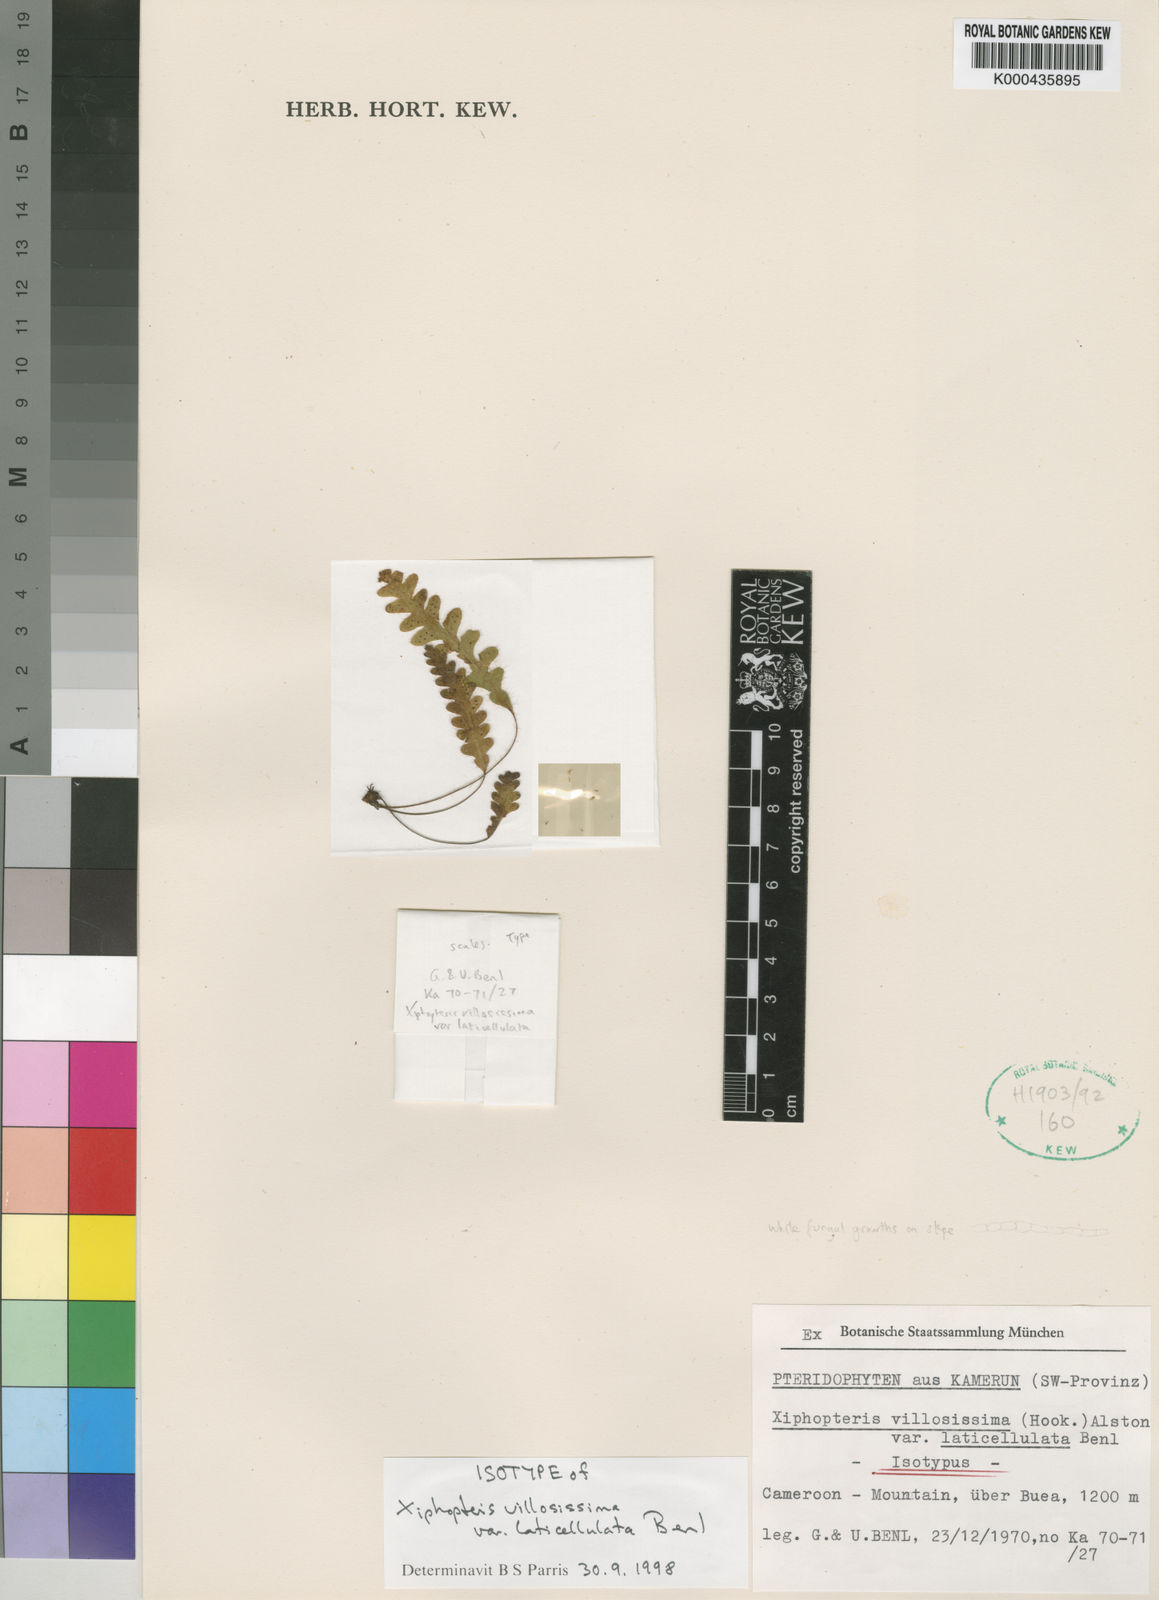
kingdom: Plantae
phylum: Tracheophyta
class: Polypodiopsida
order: Polypodiales
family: Polypodiaceae
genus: Enterosora
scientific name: Enterosora villosissima
